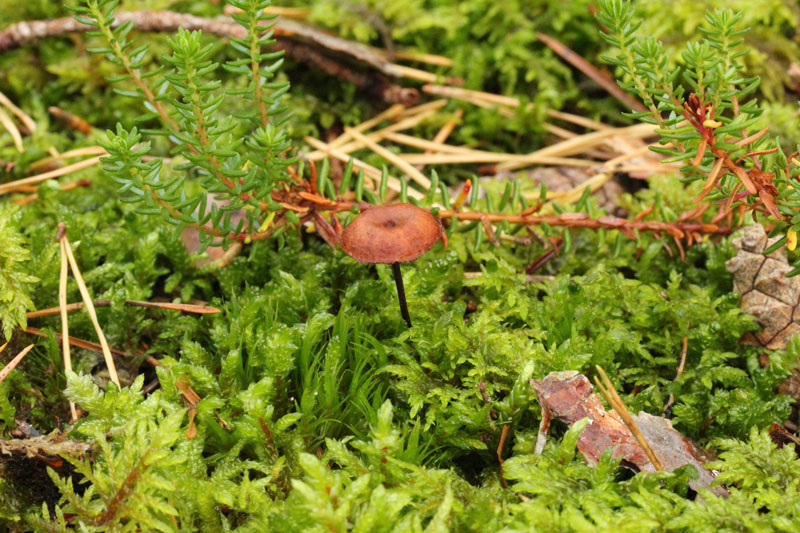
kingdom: Fungi
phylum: Basidiomycota
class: Agaricomycetes
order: Agaricales
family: Mycenaceae
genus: Xeromphalina
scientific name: Xeromphalina cornui
